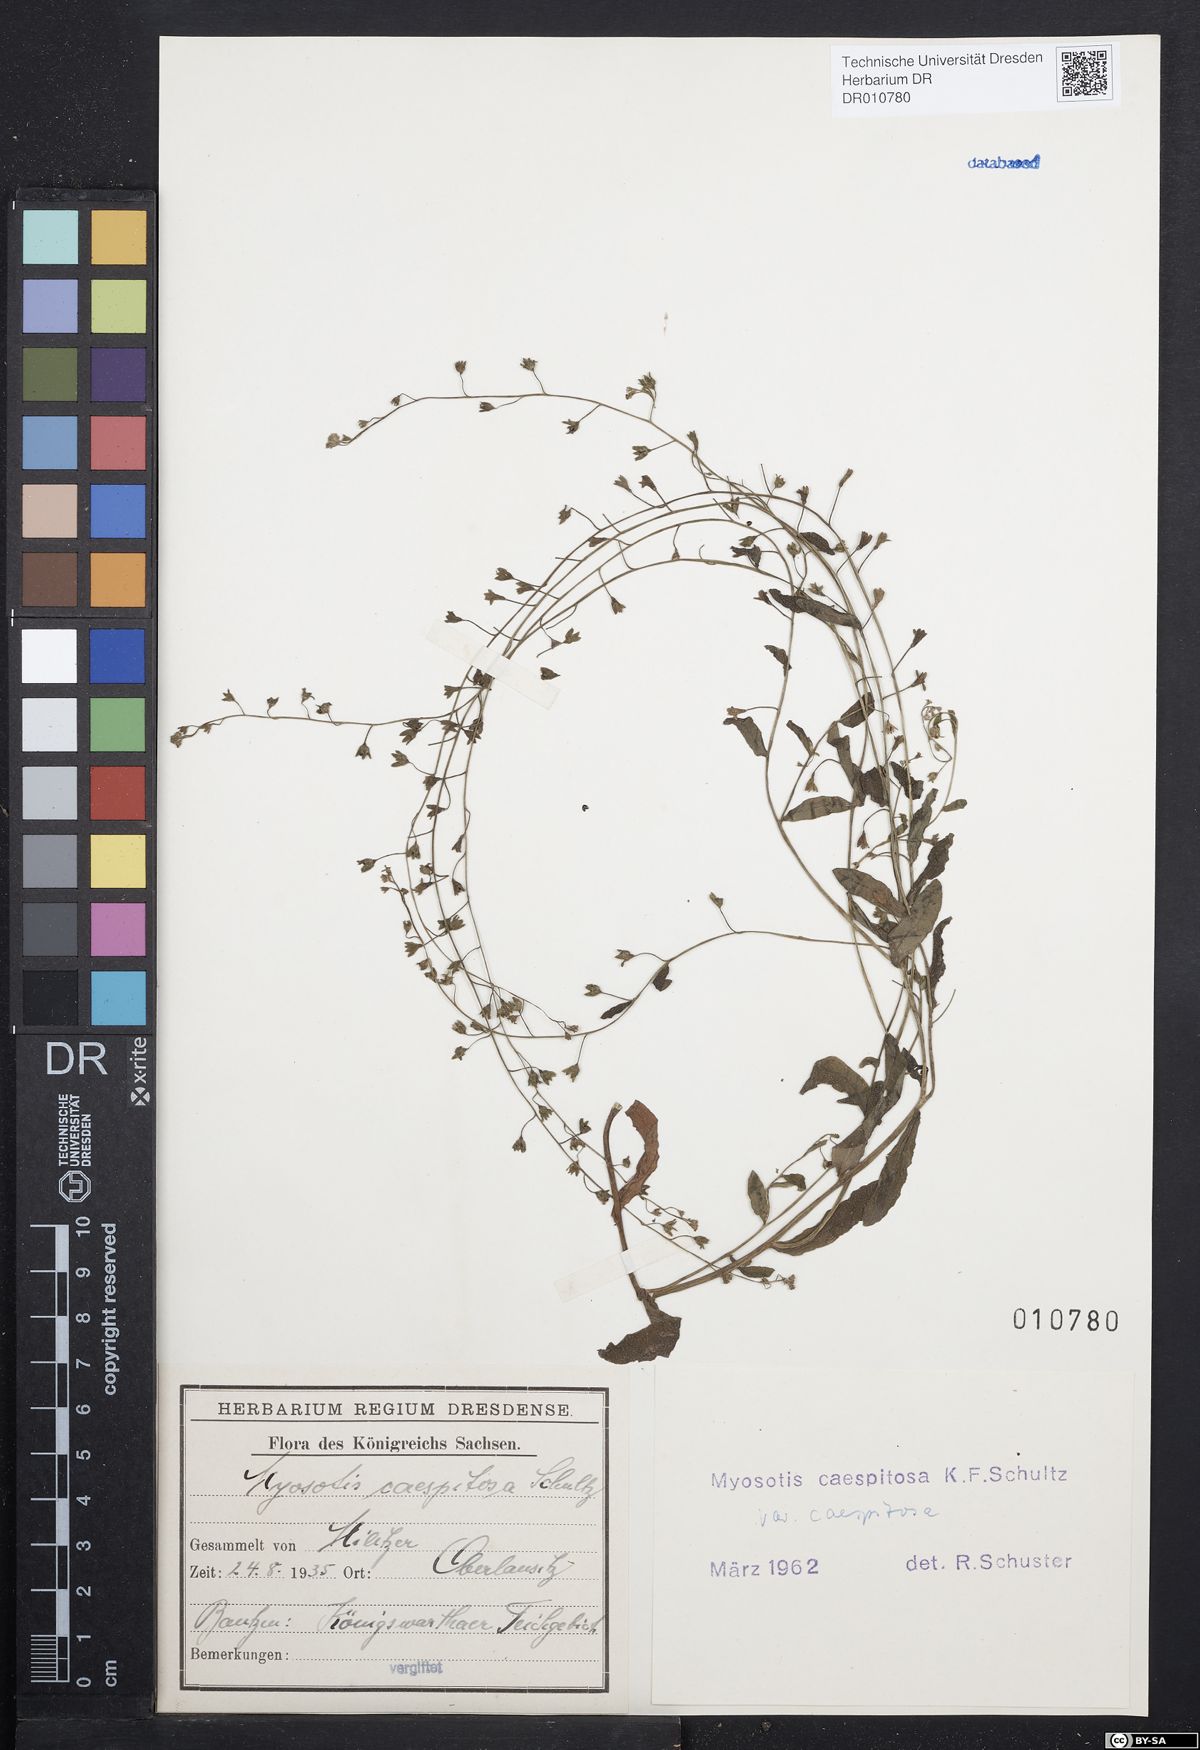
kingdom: Plantae
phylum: Tracheophyta
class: Magnoliopsida
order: Boraginales
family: Boraginaceae
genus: Myosotis
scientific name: Myosotis laxa
